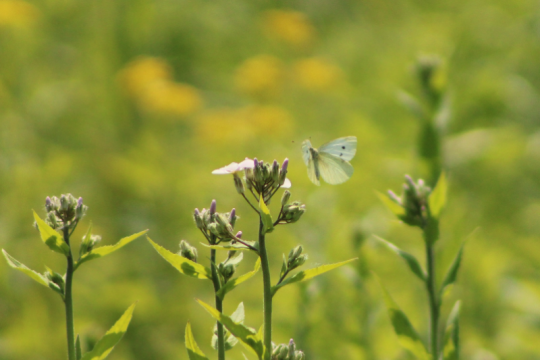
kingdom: Animalia
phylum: Arthropoda
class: Insecta
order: Lepidoptera
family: Pieridae
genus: Pieris
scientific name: Pieris rapae
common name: Cabbage White
